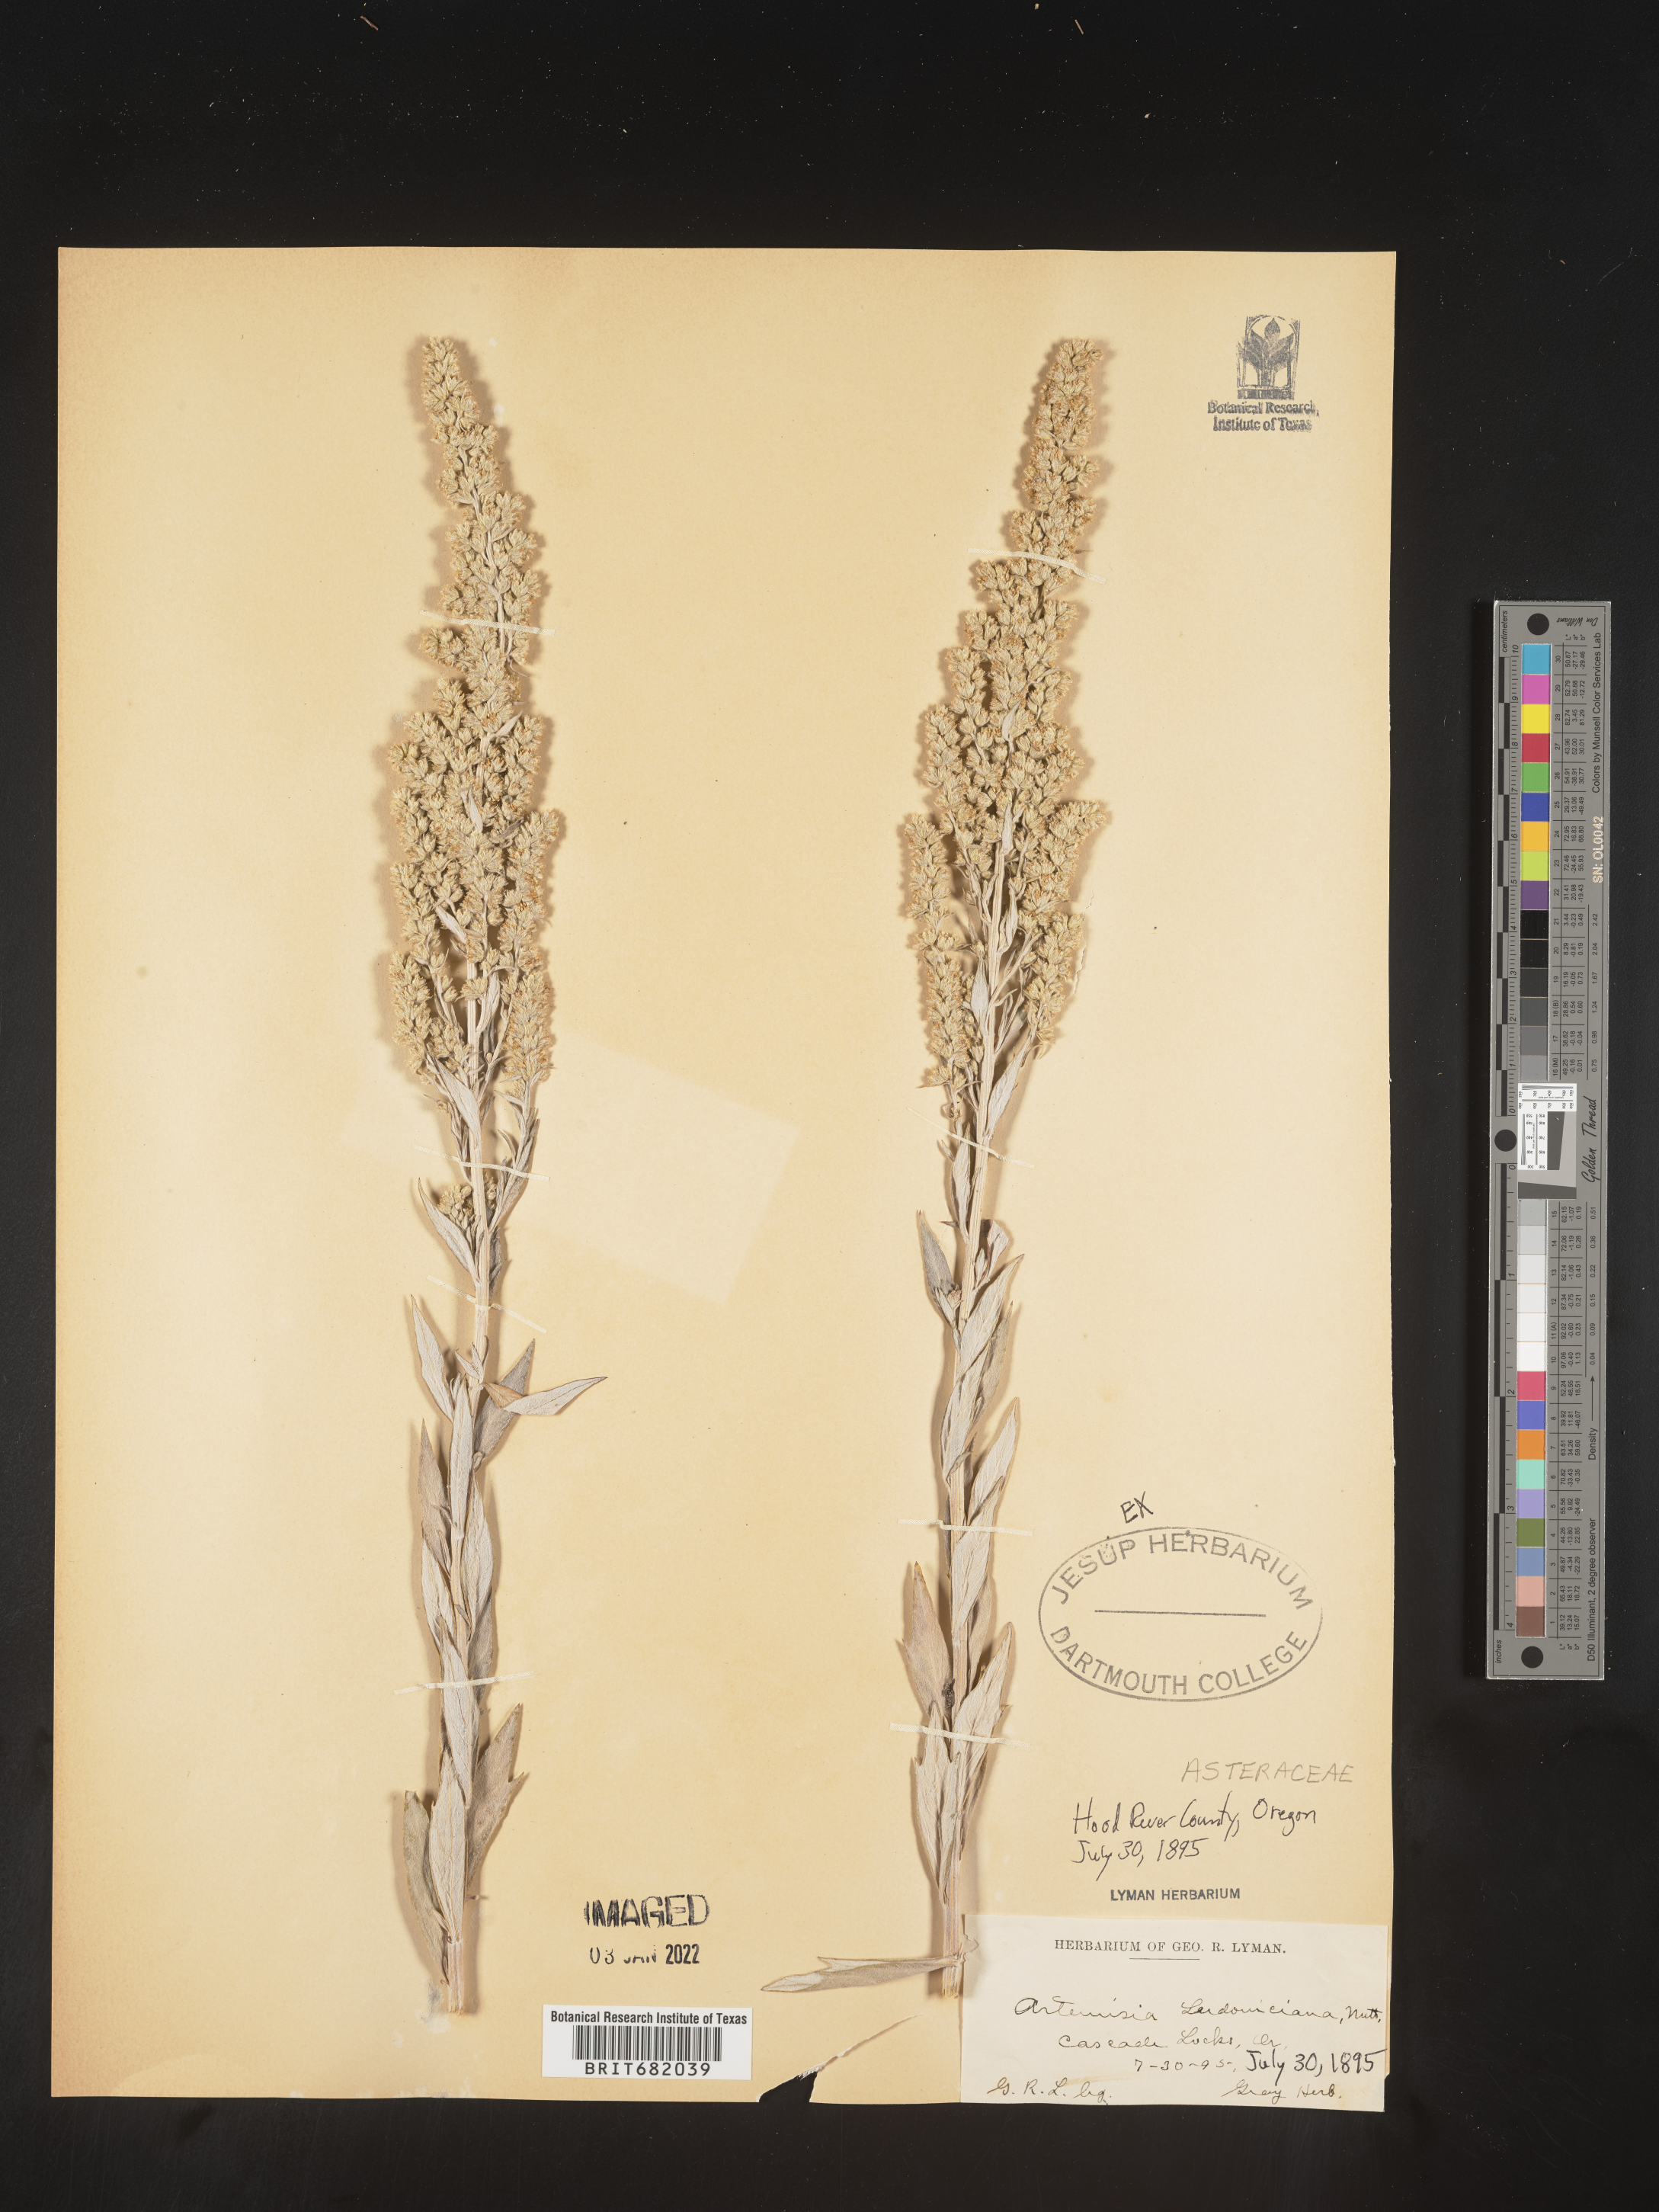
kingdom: Plantae
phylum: Tracheophyta
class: Magnoliopsida
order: Asterales
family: Asteraceae
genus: Artemisia
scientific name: Artemisia ludoviciana
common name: Western mugwort
